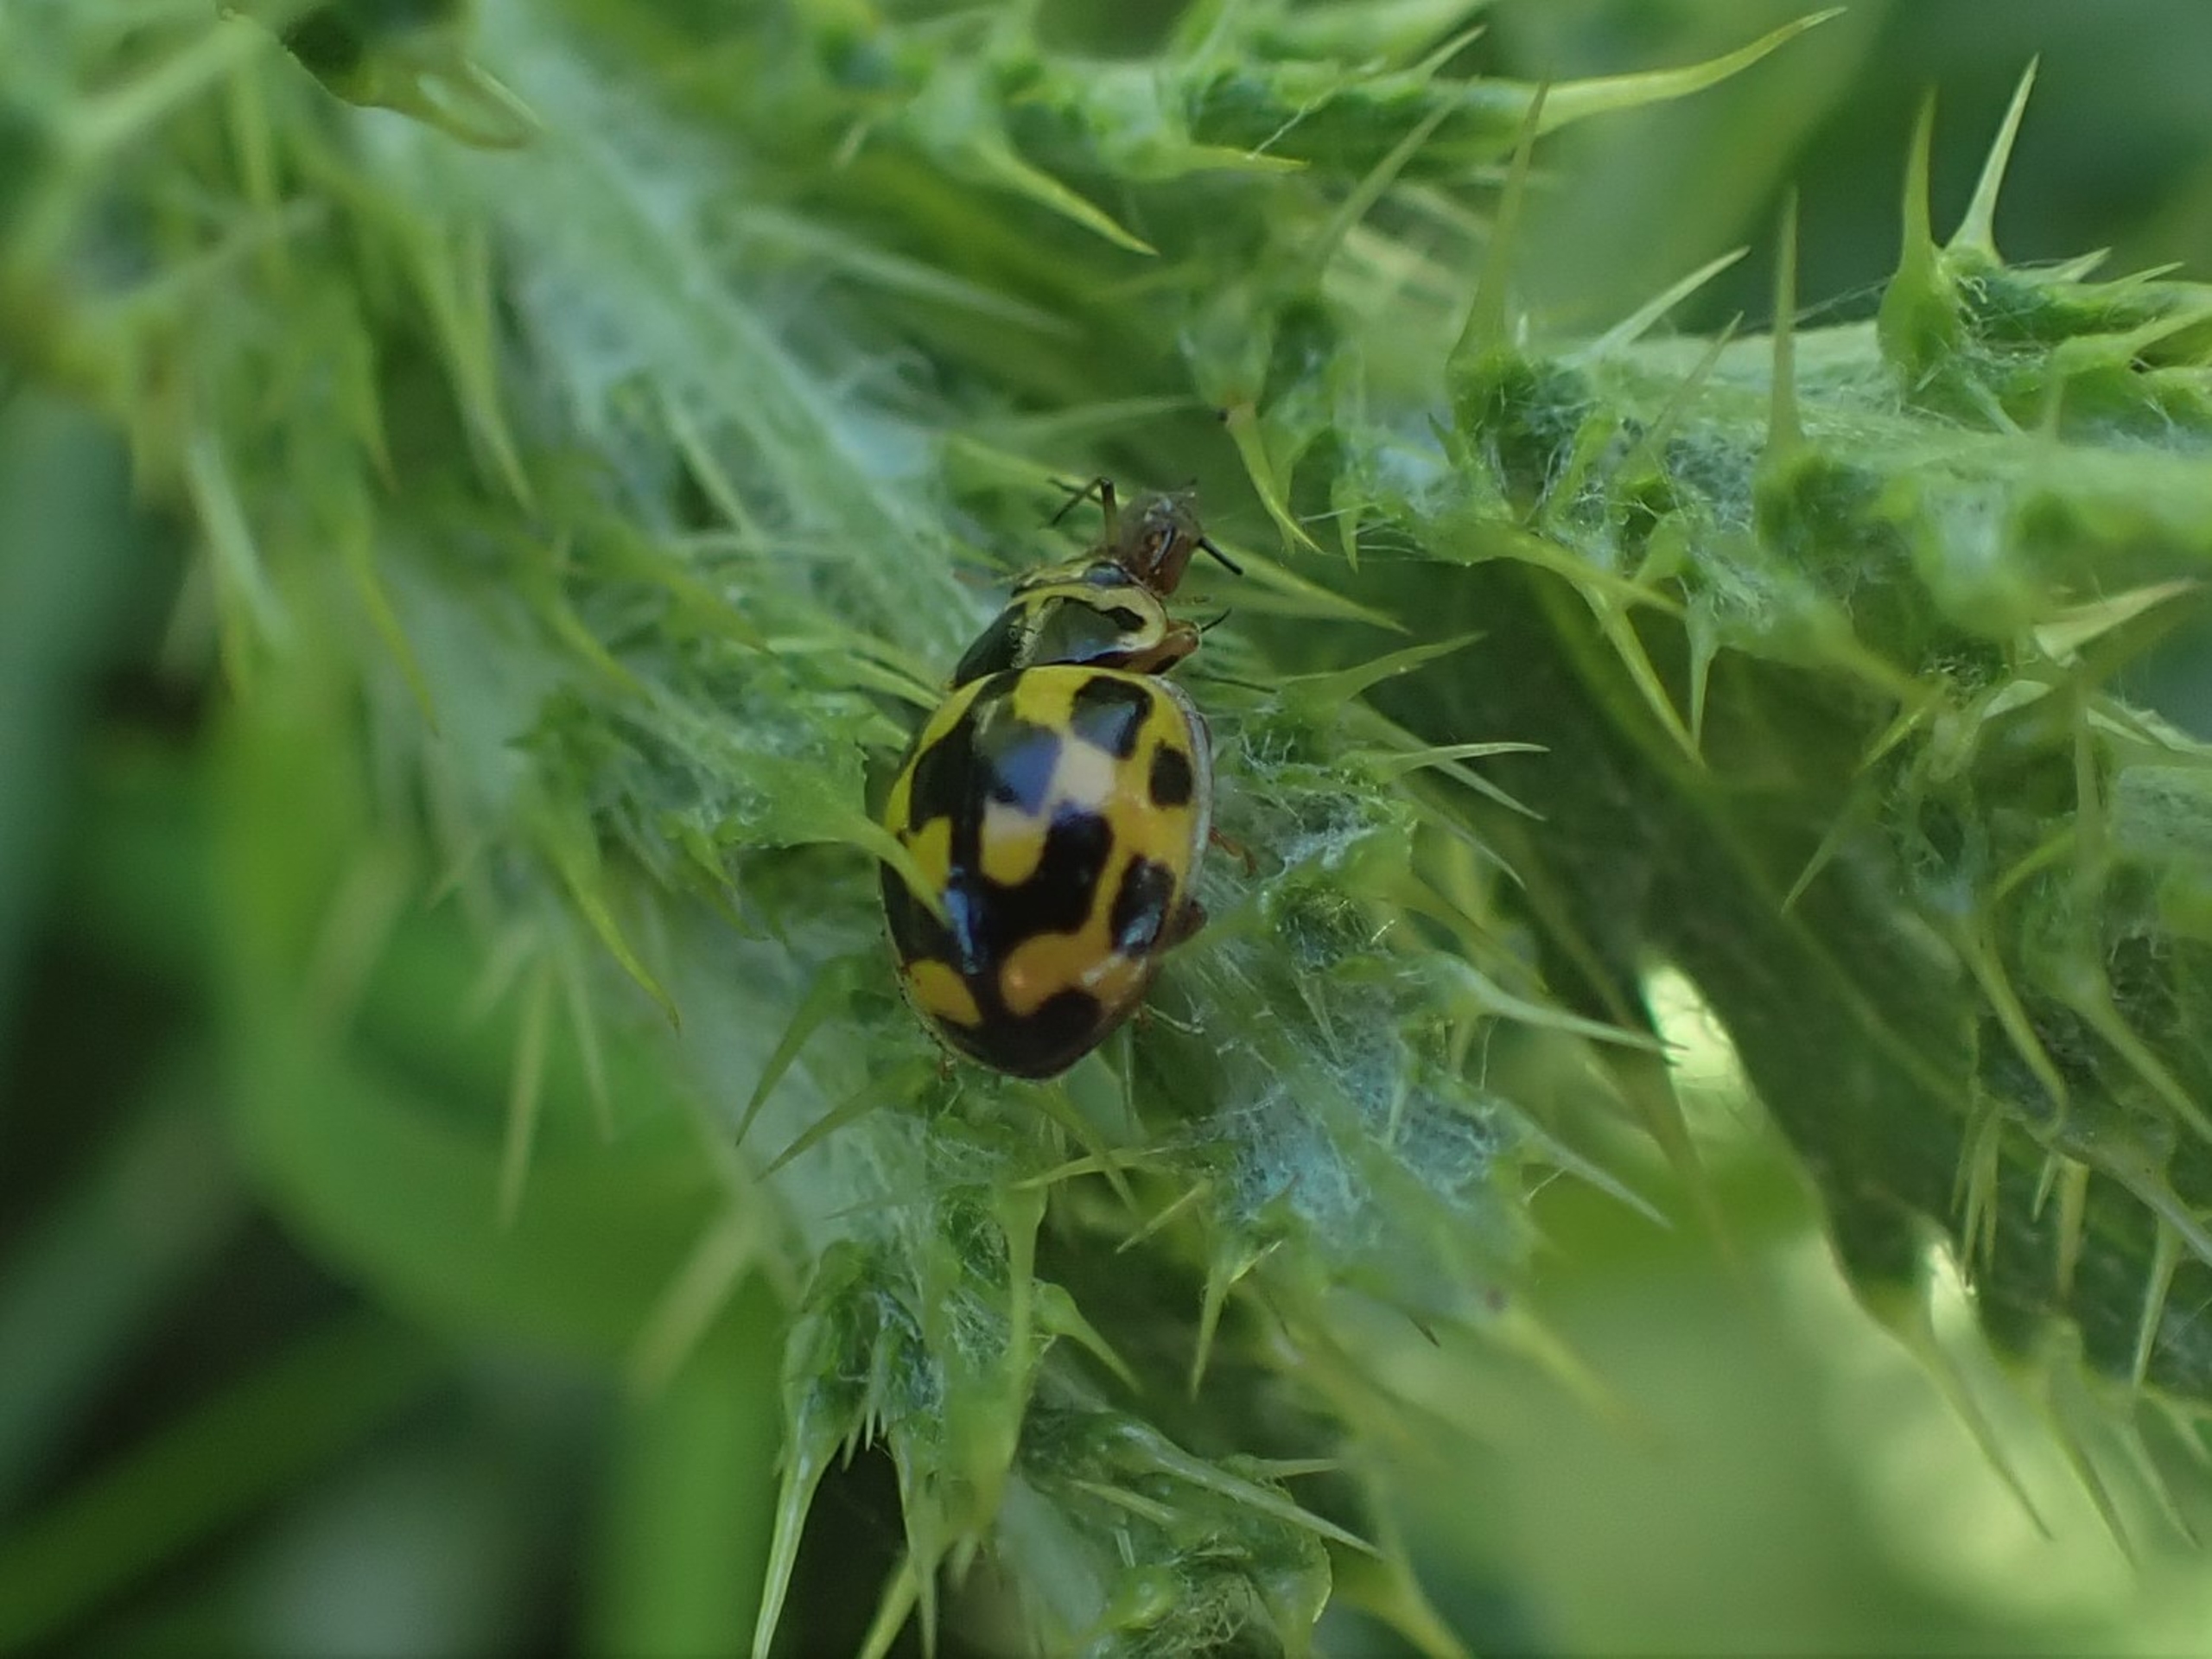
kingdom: Animalia
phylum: Arthropoda
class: Insecta
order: Coleoptera
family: Coccinellidae
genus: Propylaea
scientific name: Propylaea quatuordecimpunctata
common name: Skakbræt
